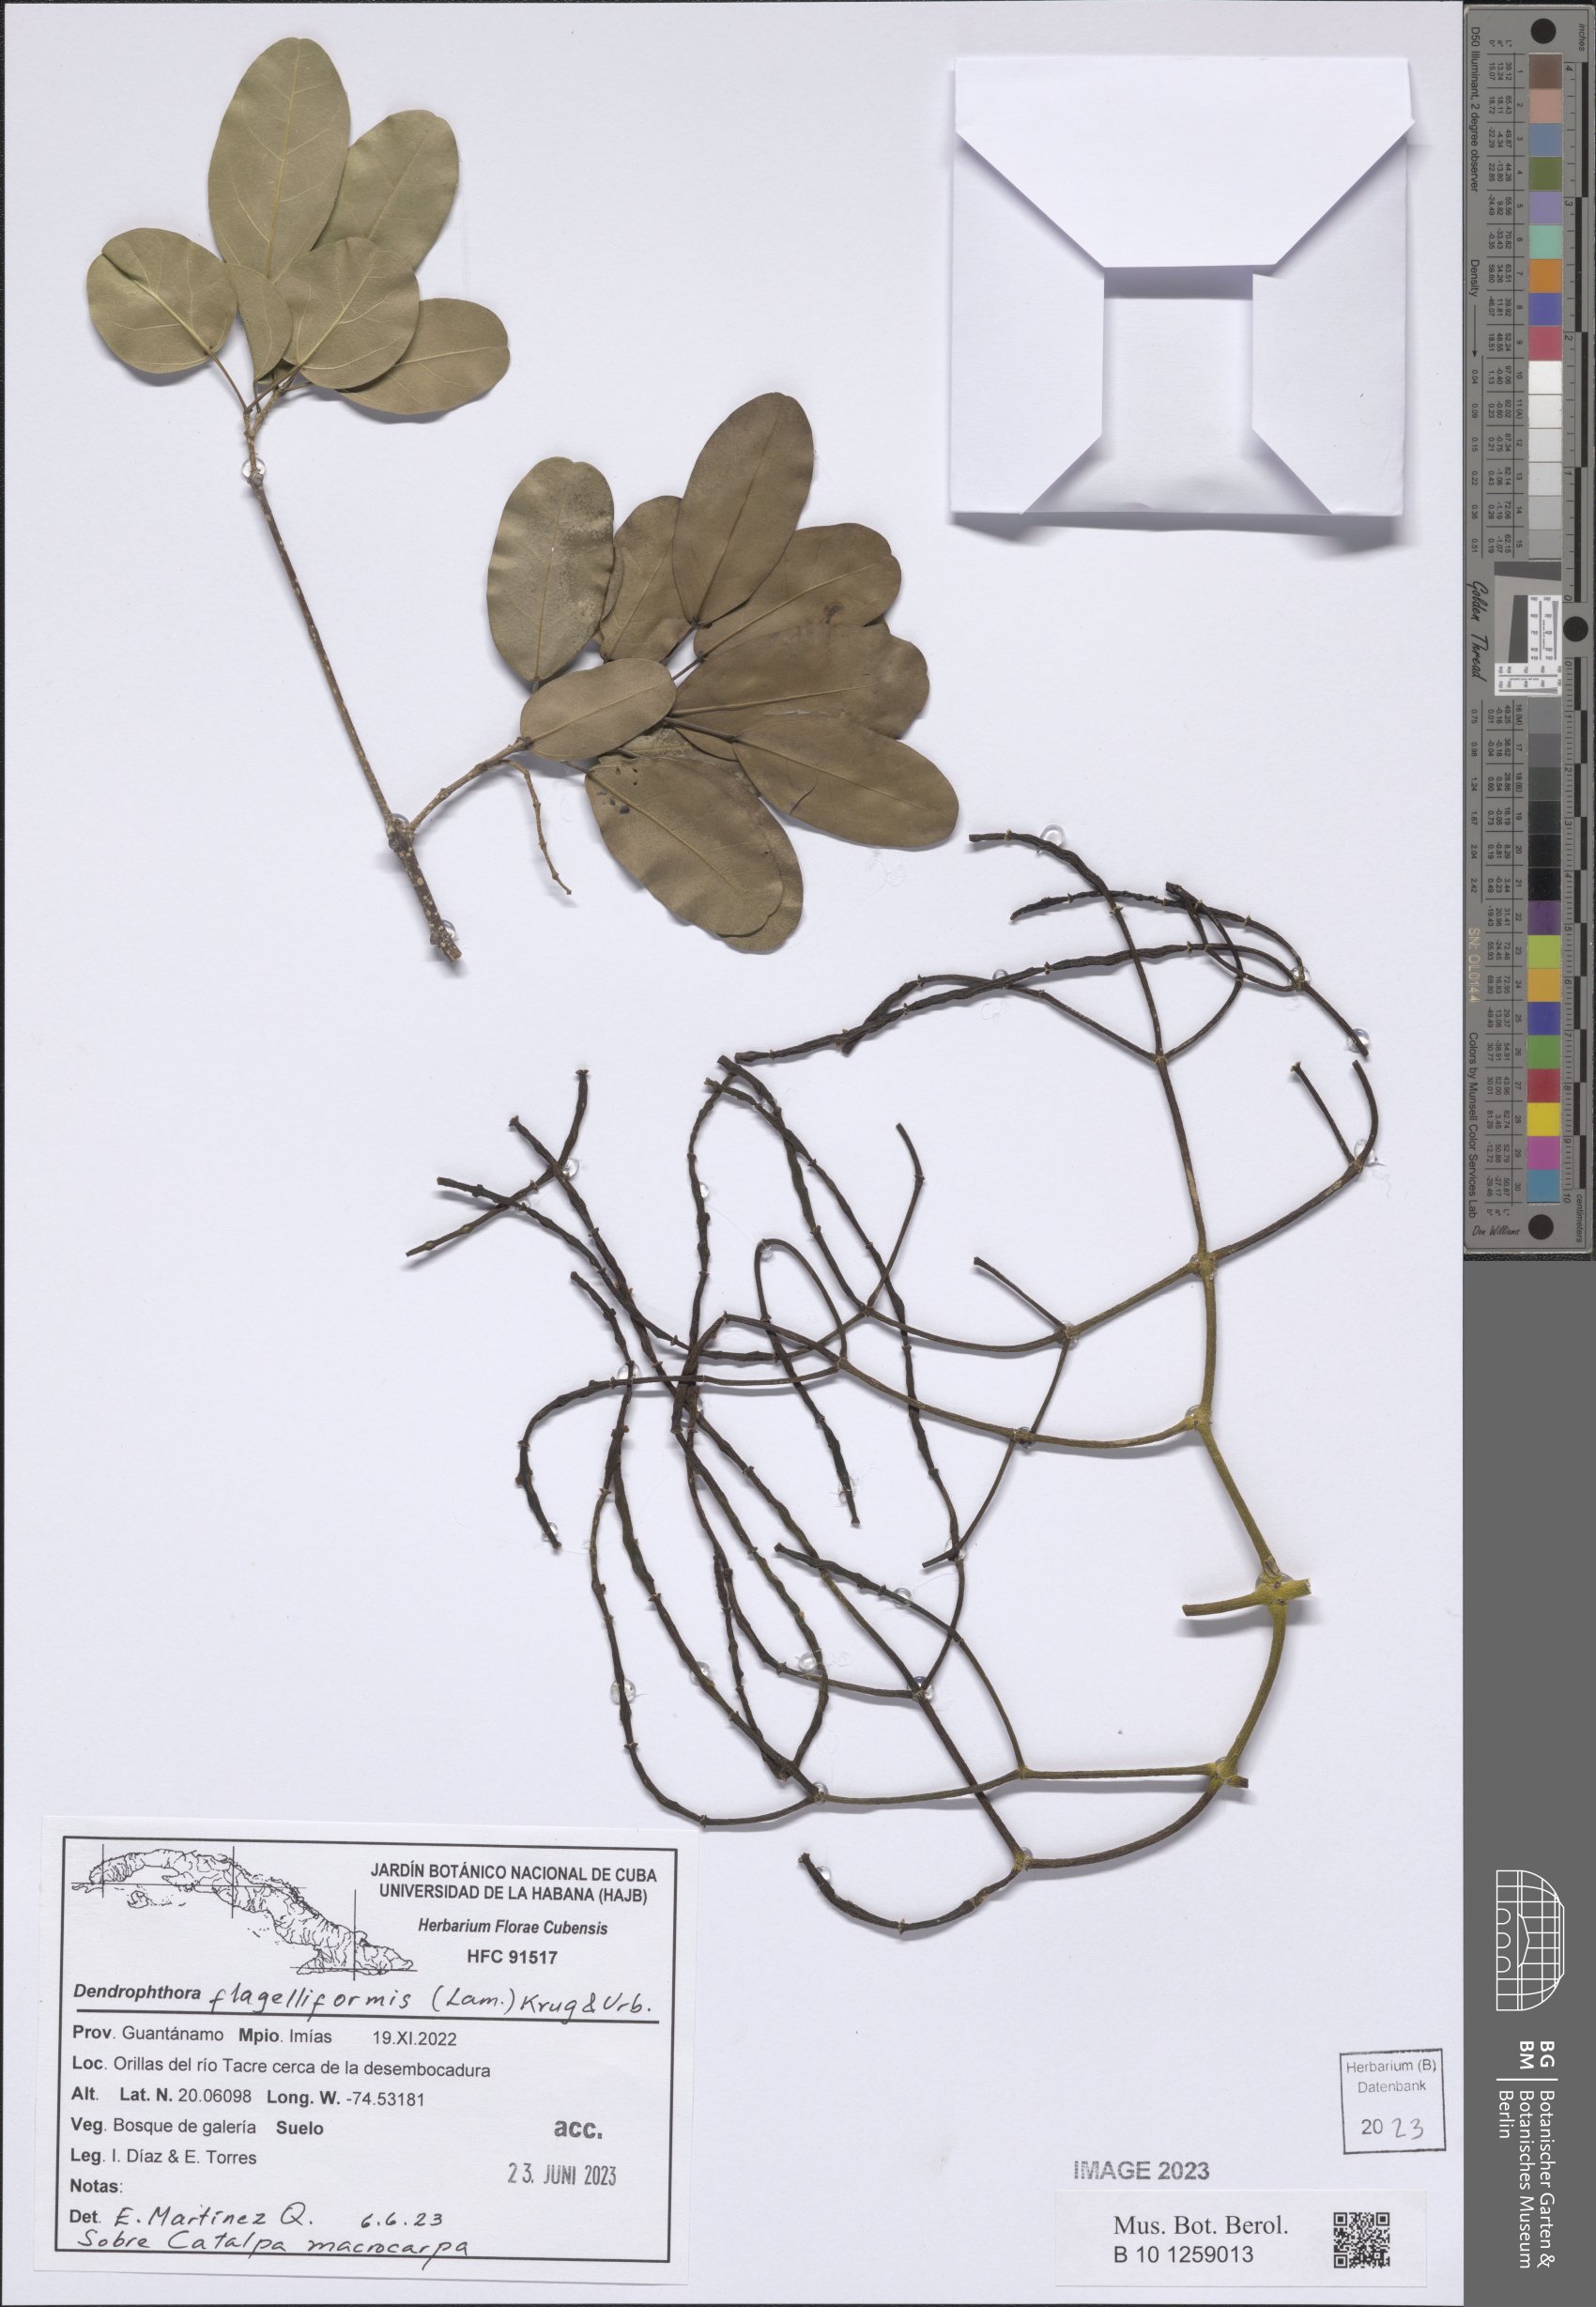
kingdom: Plantae
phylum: Tracheophyta
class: Magnoliopsida
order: Santalales
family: Viscaceae
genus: Dendrophthora
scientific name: Dendrophthora flagelliformis
